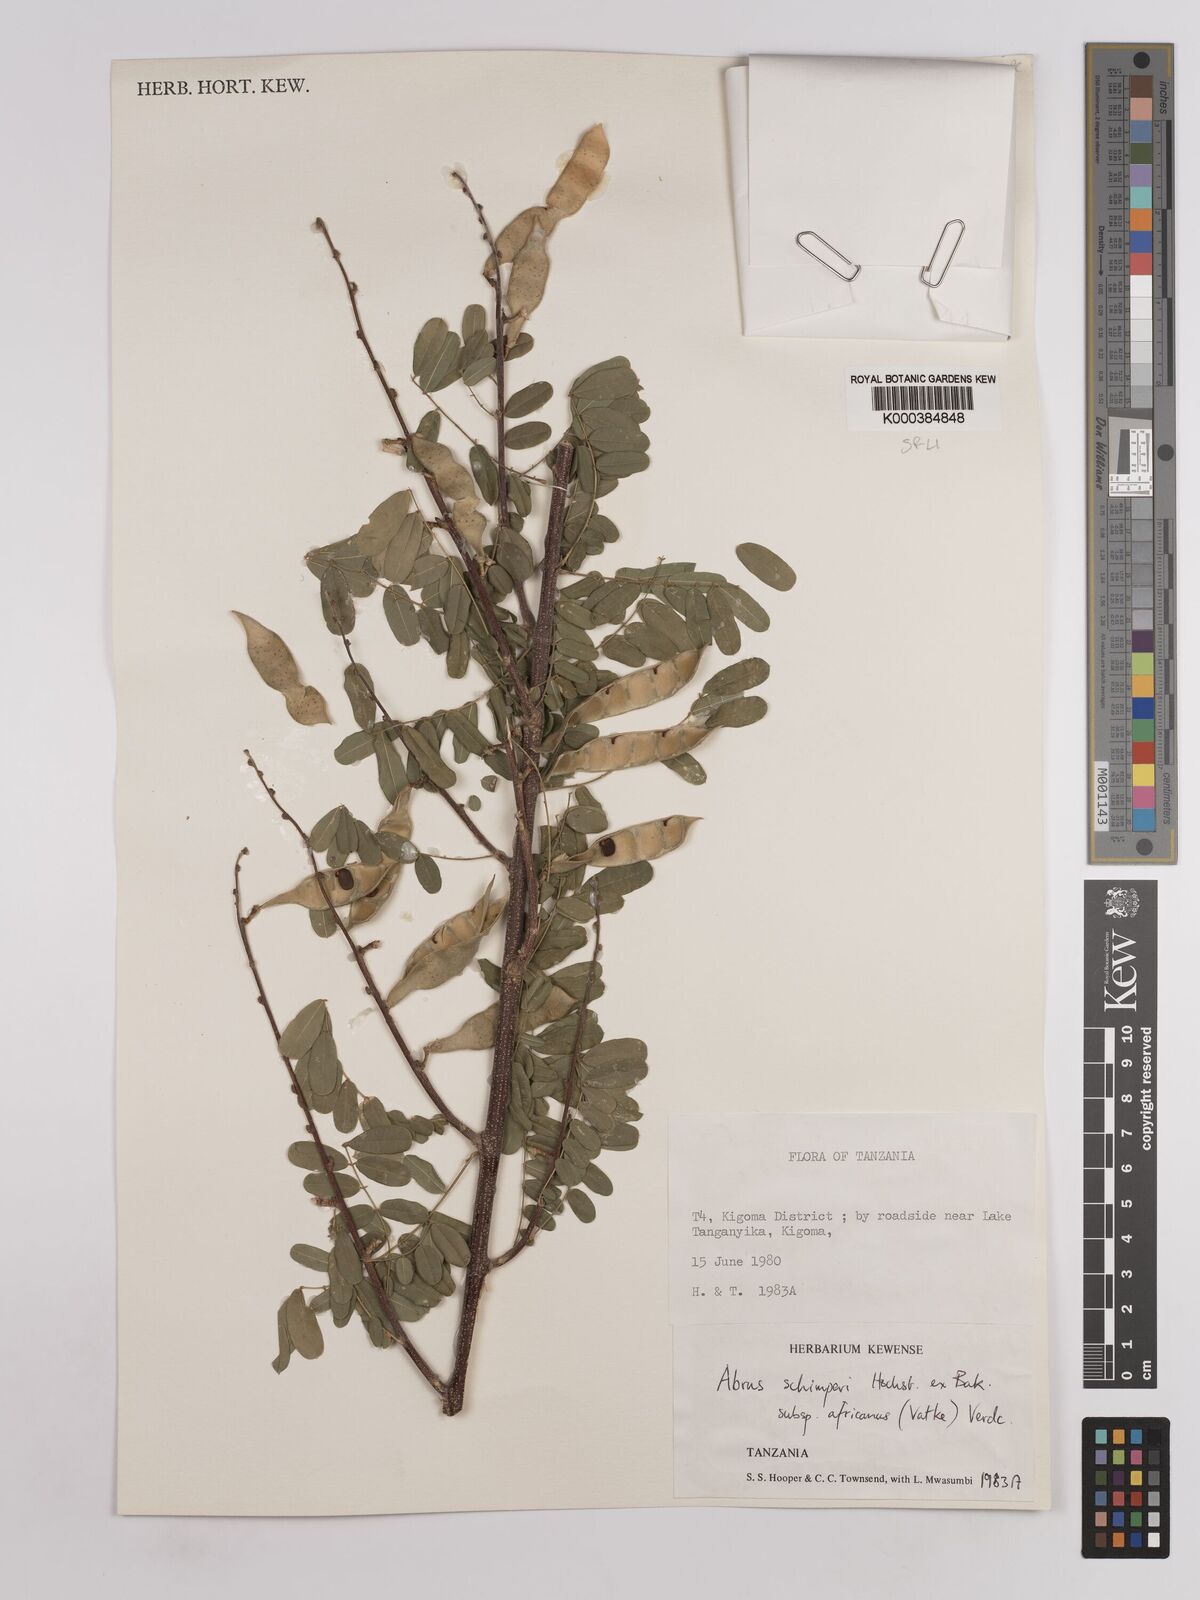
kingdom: Plantae
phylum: Tracheophyta
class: Magnoliopsida
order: Fabales
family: Fabaceae
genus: Abrus
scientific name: Abrus fruticulosus
